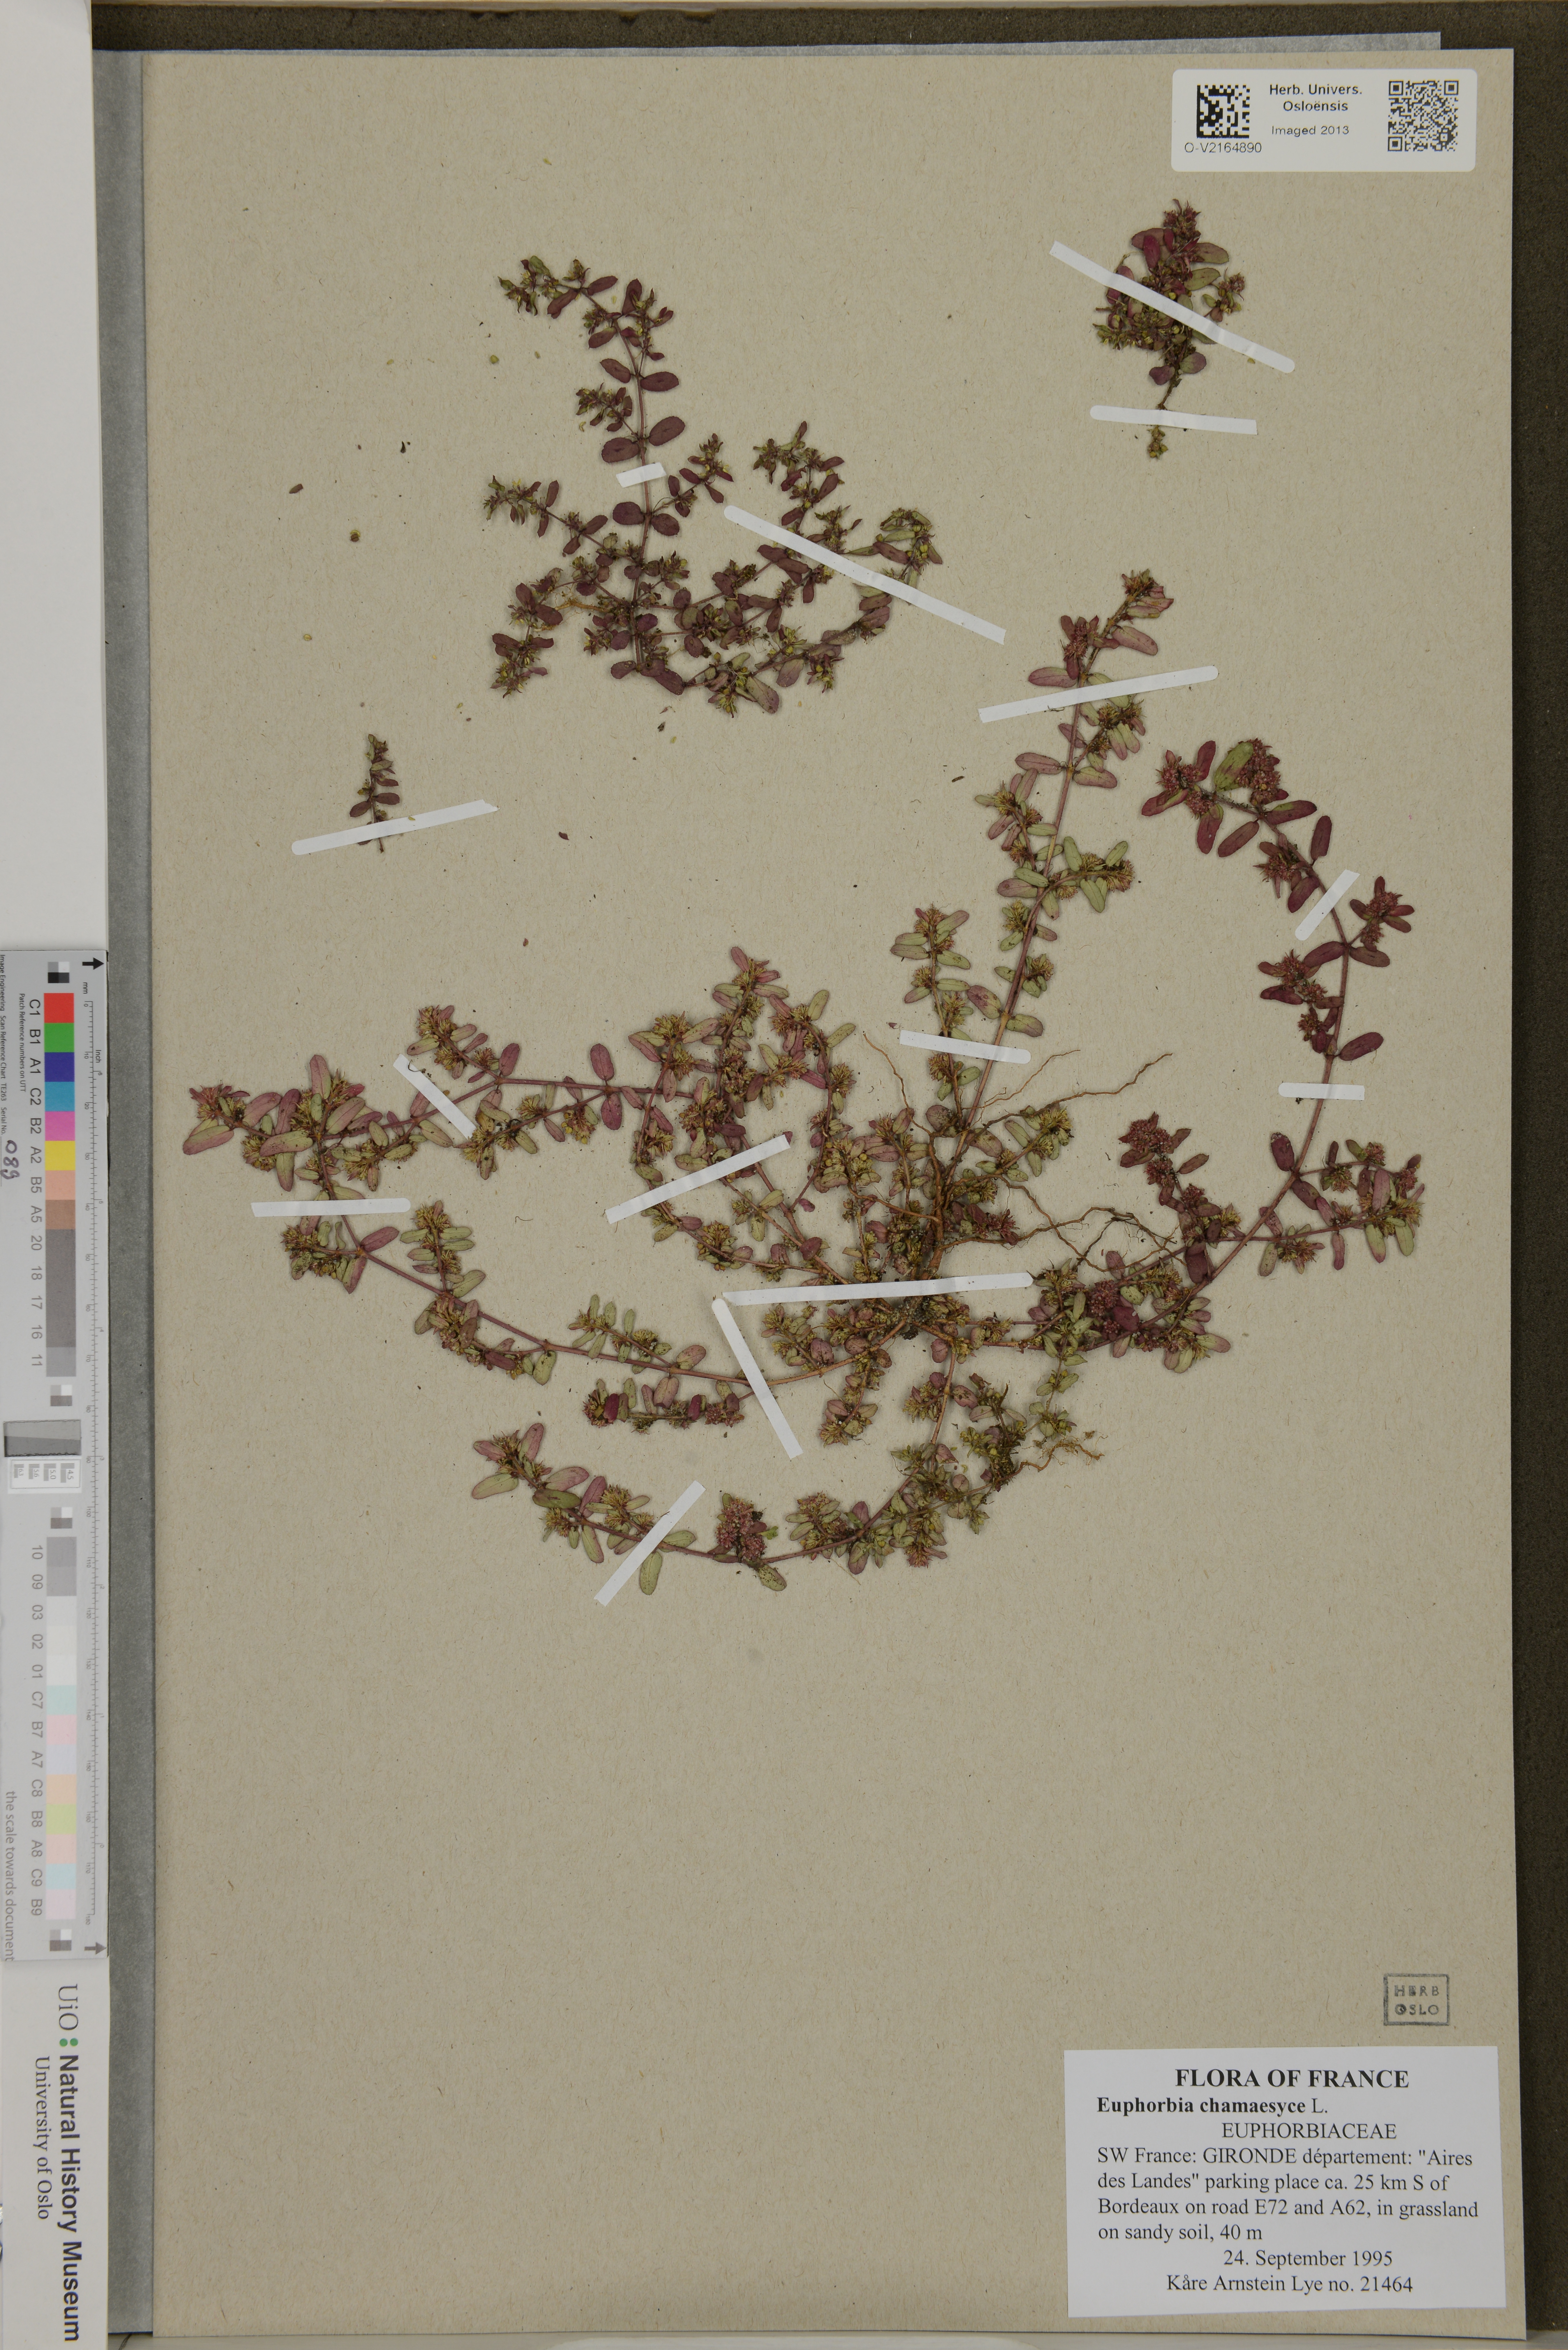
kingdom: Plantae
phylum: Tracheophyta
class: Magnoliopsida
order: Malpighiales
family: Euphorbiaceae
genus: Euphorbia
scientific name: Euphorbia chamaesyce
